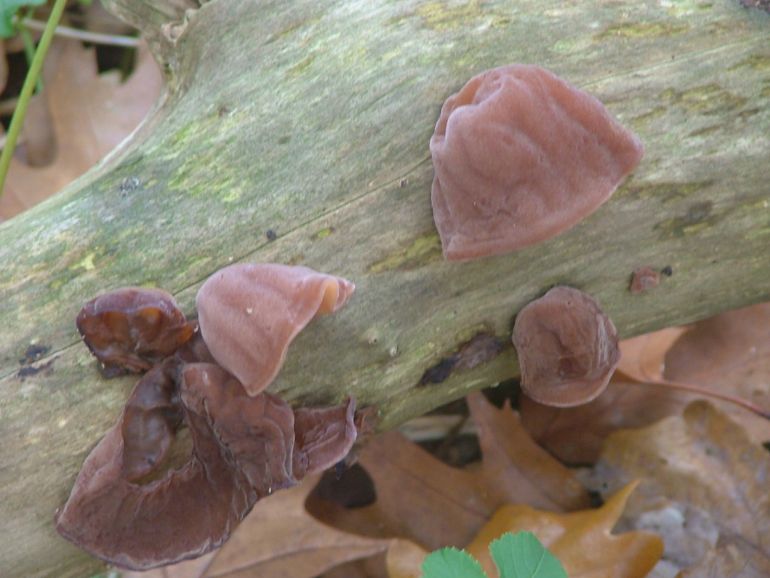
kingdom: Fungi
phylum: Basidiomycota
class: Agaricomycetes
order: Auriculariales
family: Auriculariaceae
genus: Auricularia
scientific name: Auricularia auricula-judae
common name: almindelig judasøre
